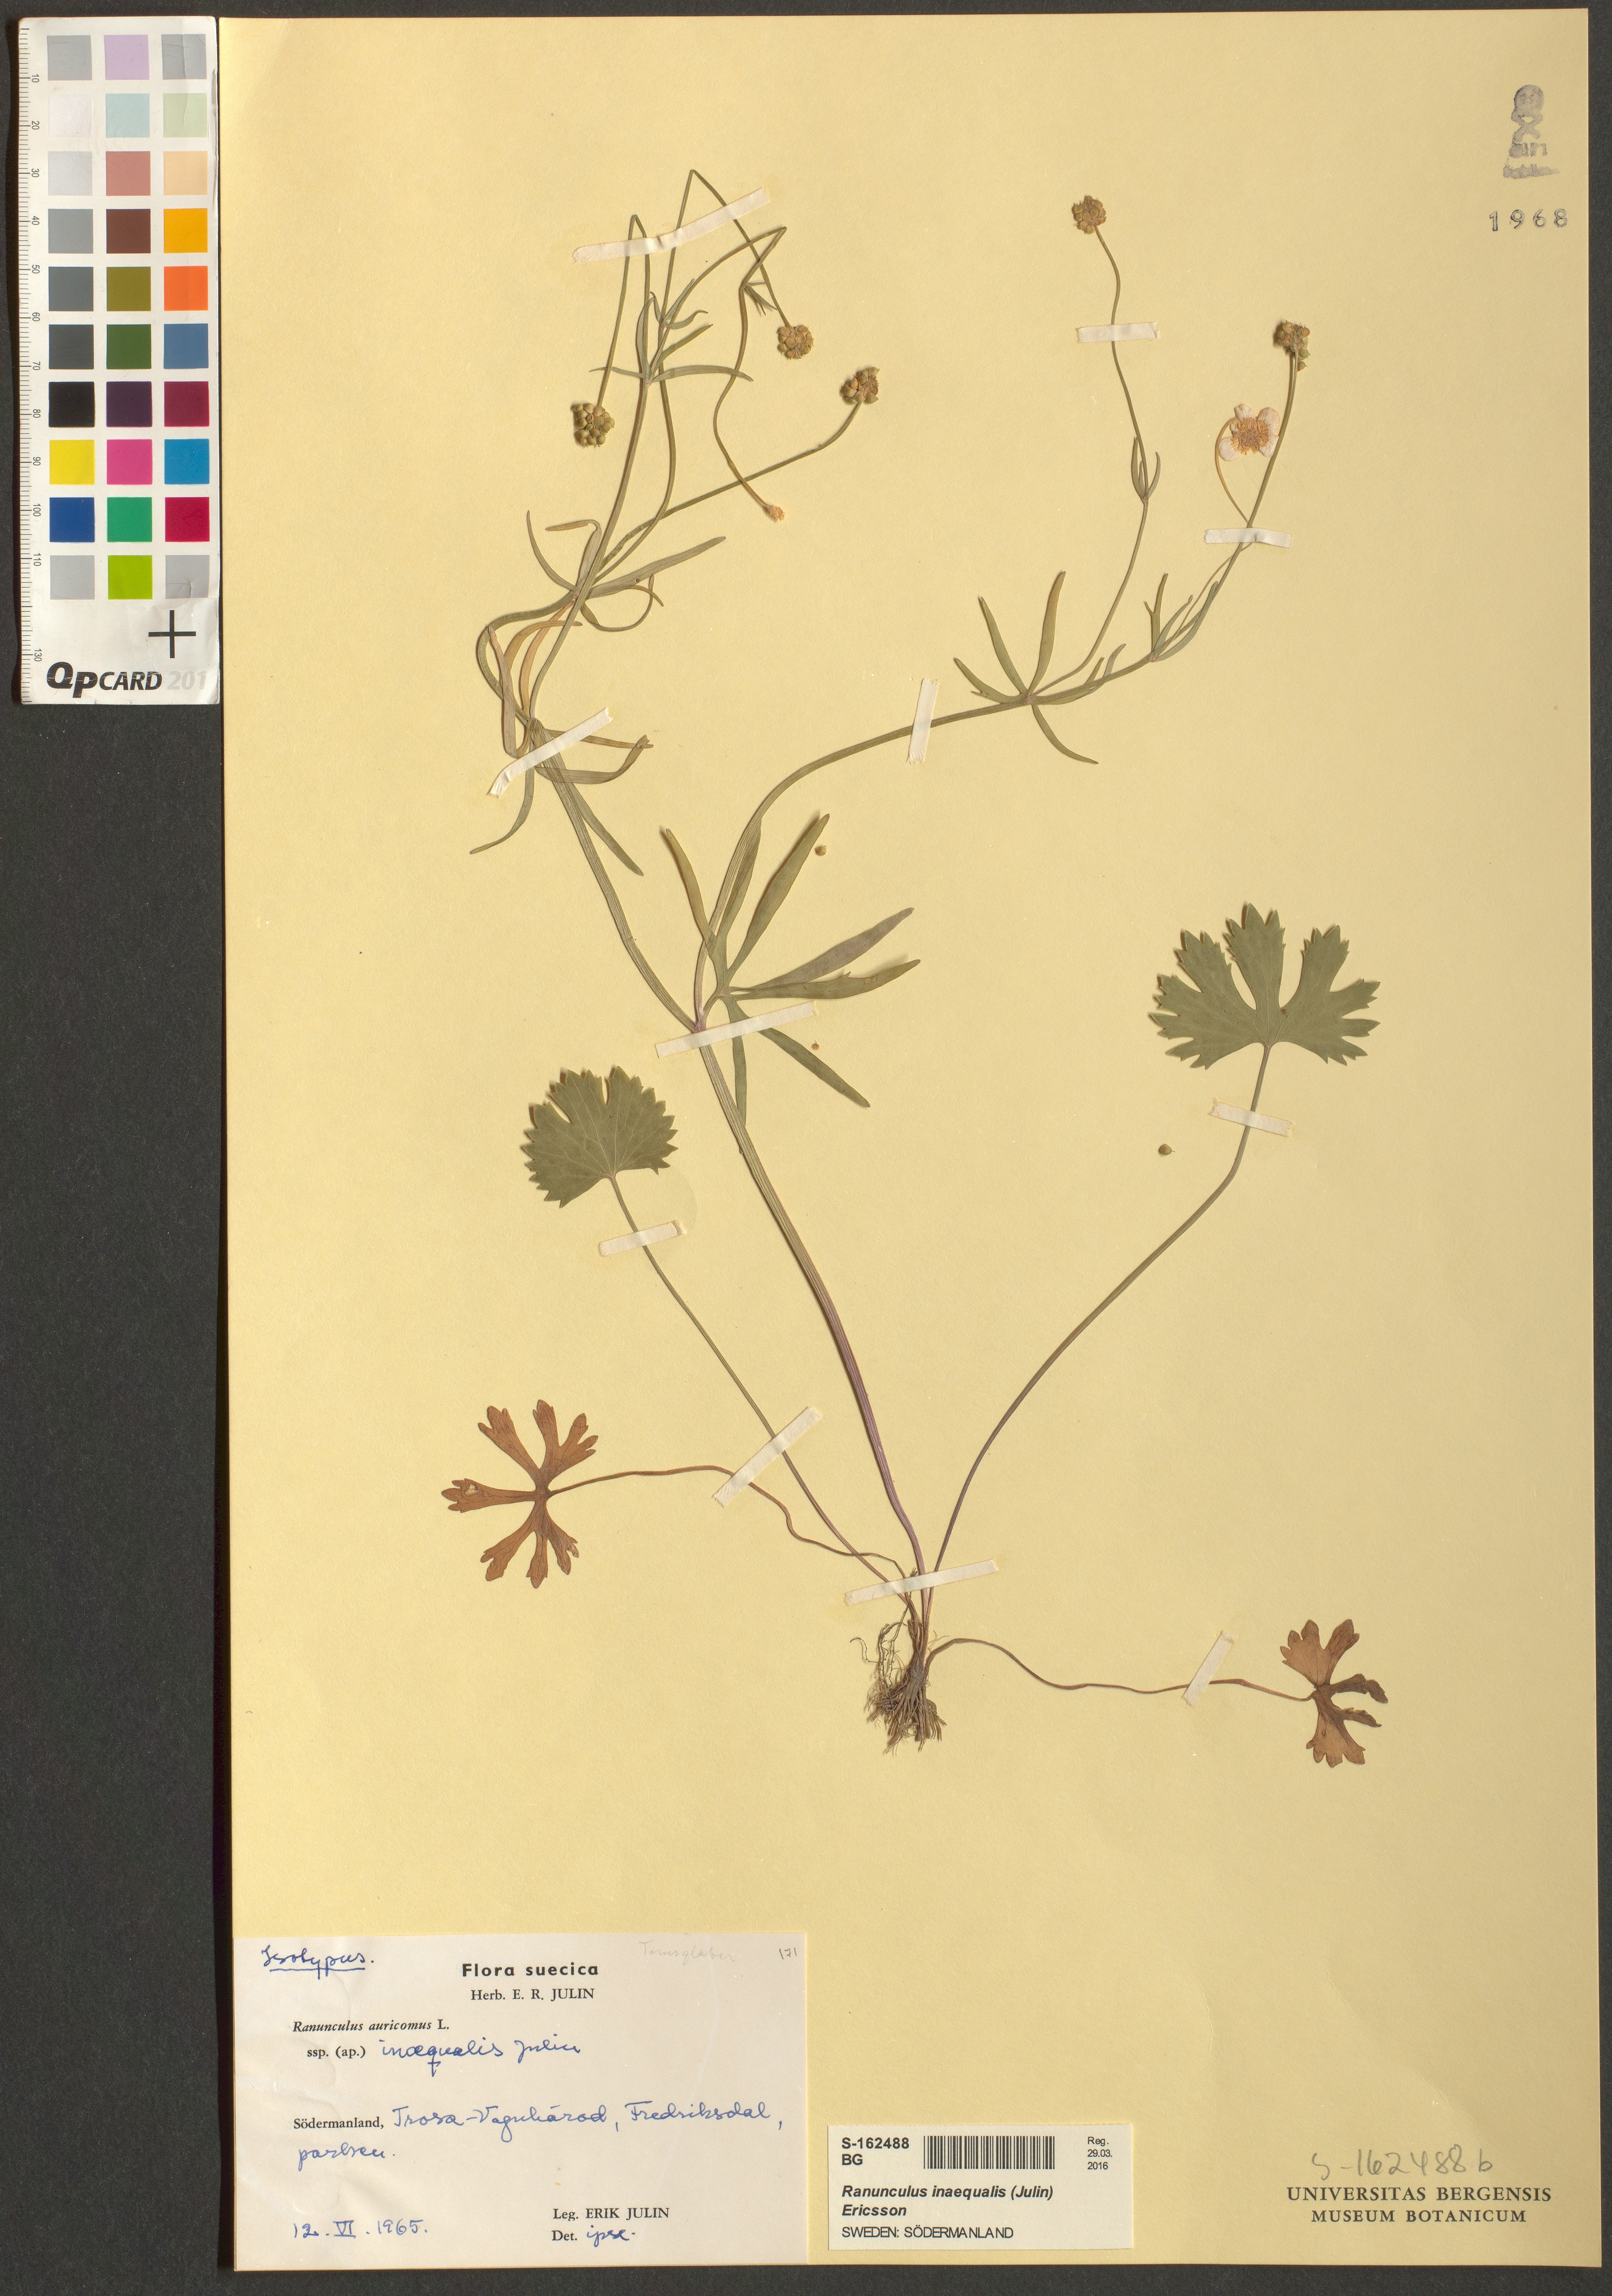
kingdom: Plantae
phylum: Tracheophyta
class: Magnoliopsida
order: Ranunculales
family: Ranunculaceae
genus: Ranunculus
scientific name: Ranunculus inaequalis
